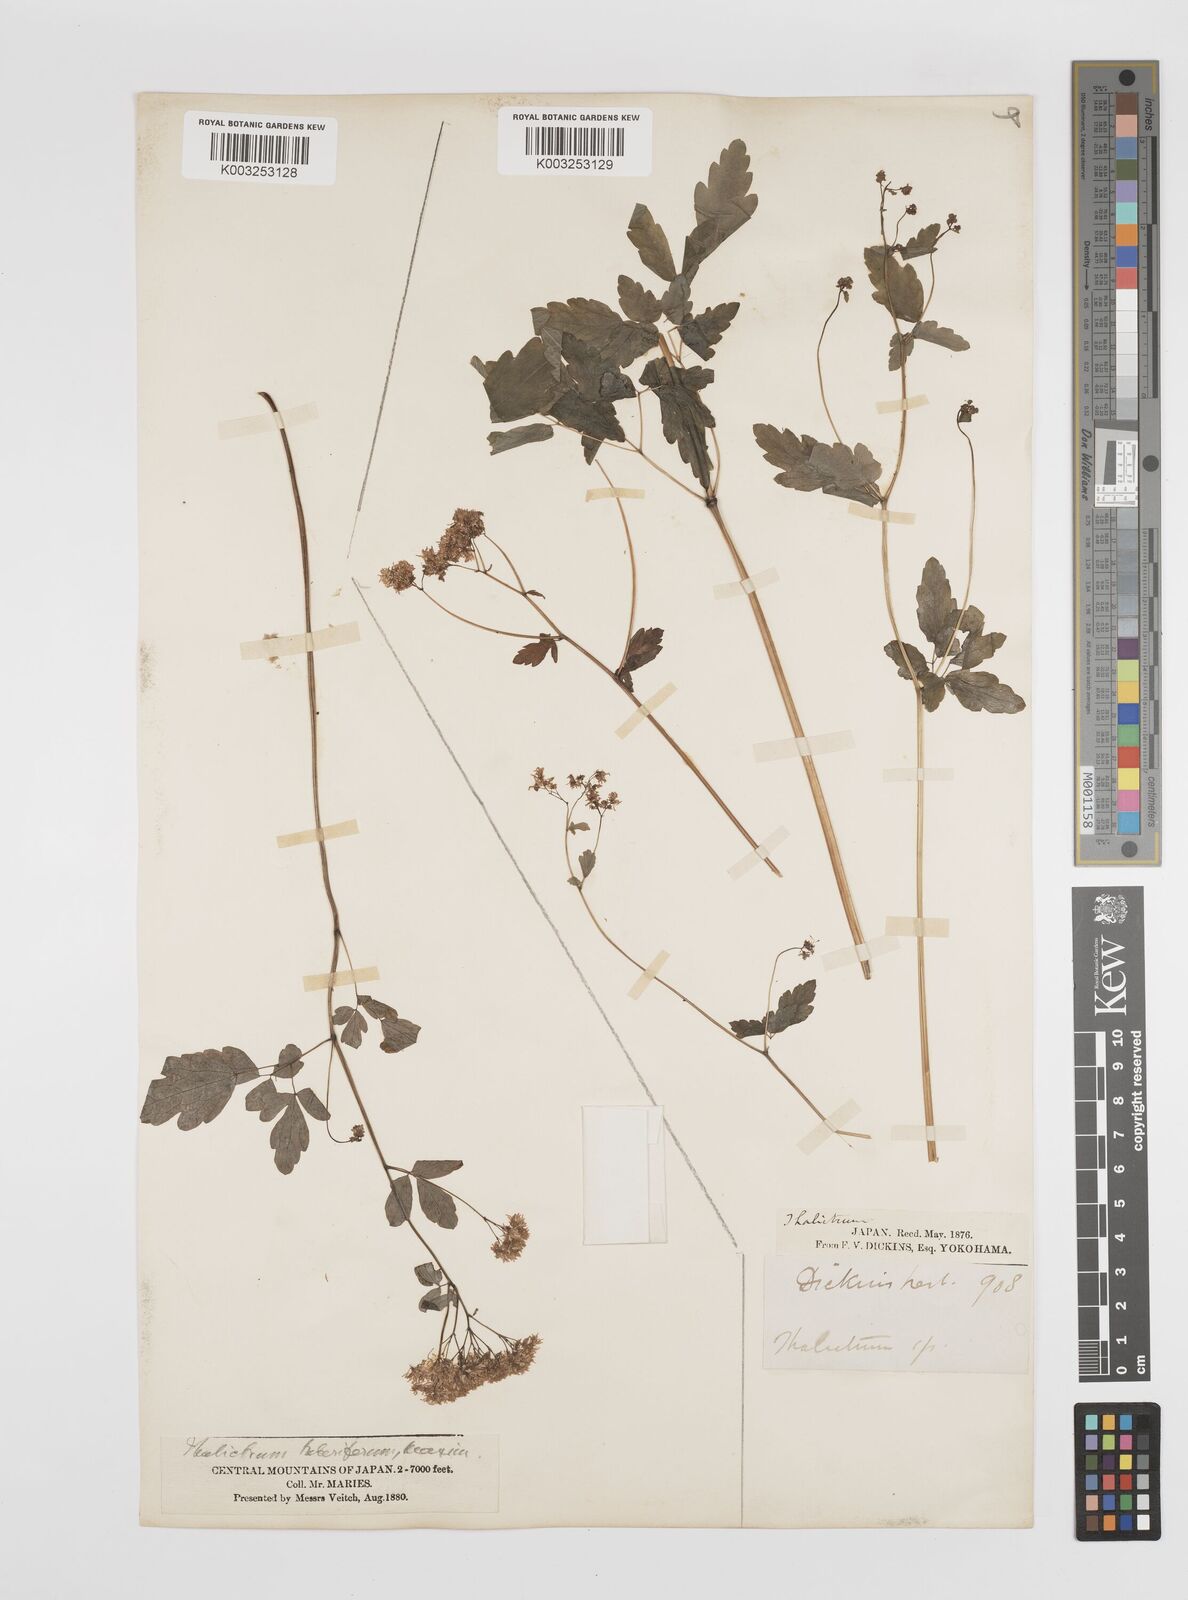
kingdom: Plantae
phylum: Tracheophyta
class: Magnoliopsida
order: Ranunculales
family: Ranunculaceae
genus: Thalictrum
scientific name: Thalictrum tuberiferum
